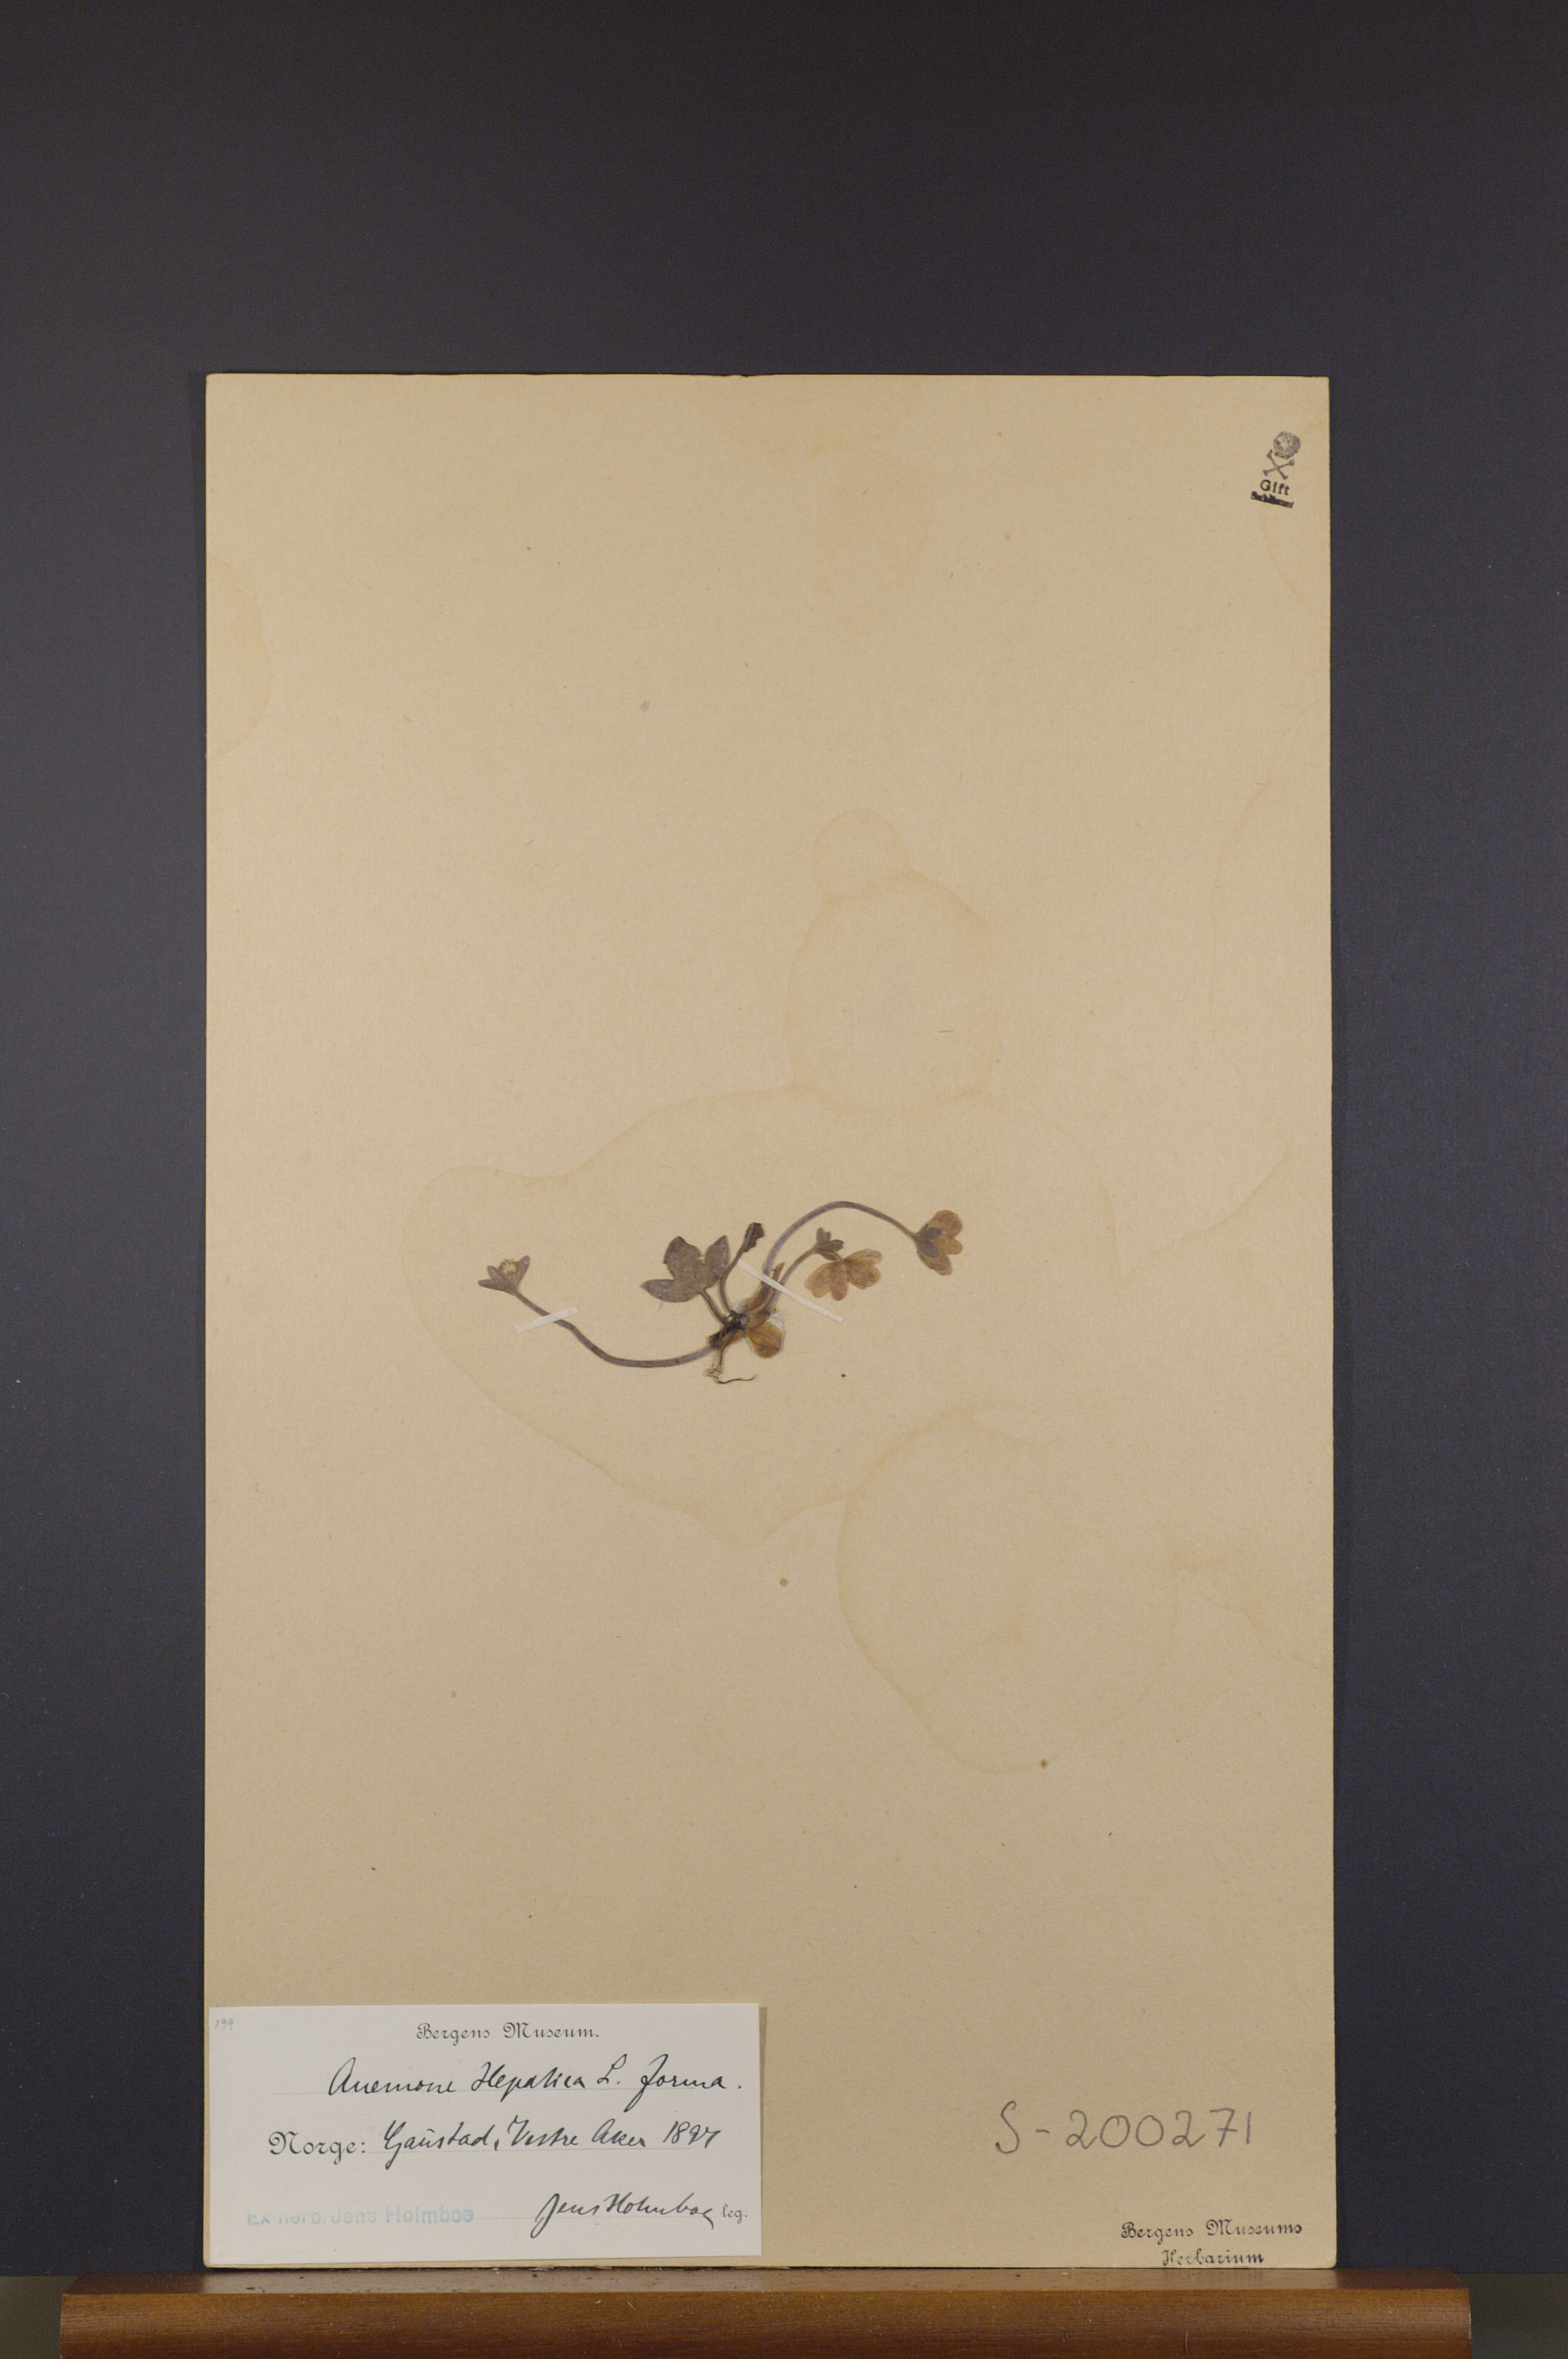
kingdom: Plantae
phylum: Tracheophyta
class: Magnoliopsida
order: Ranunculales
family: Ranunculaceae
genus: Hepatica
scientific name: Hepatica nobilis
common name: Liverleaf
